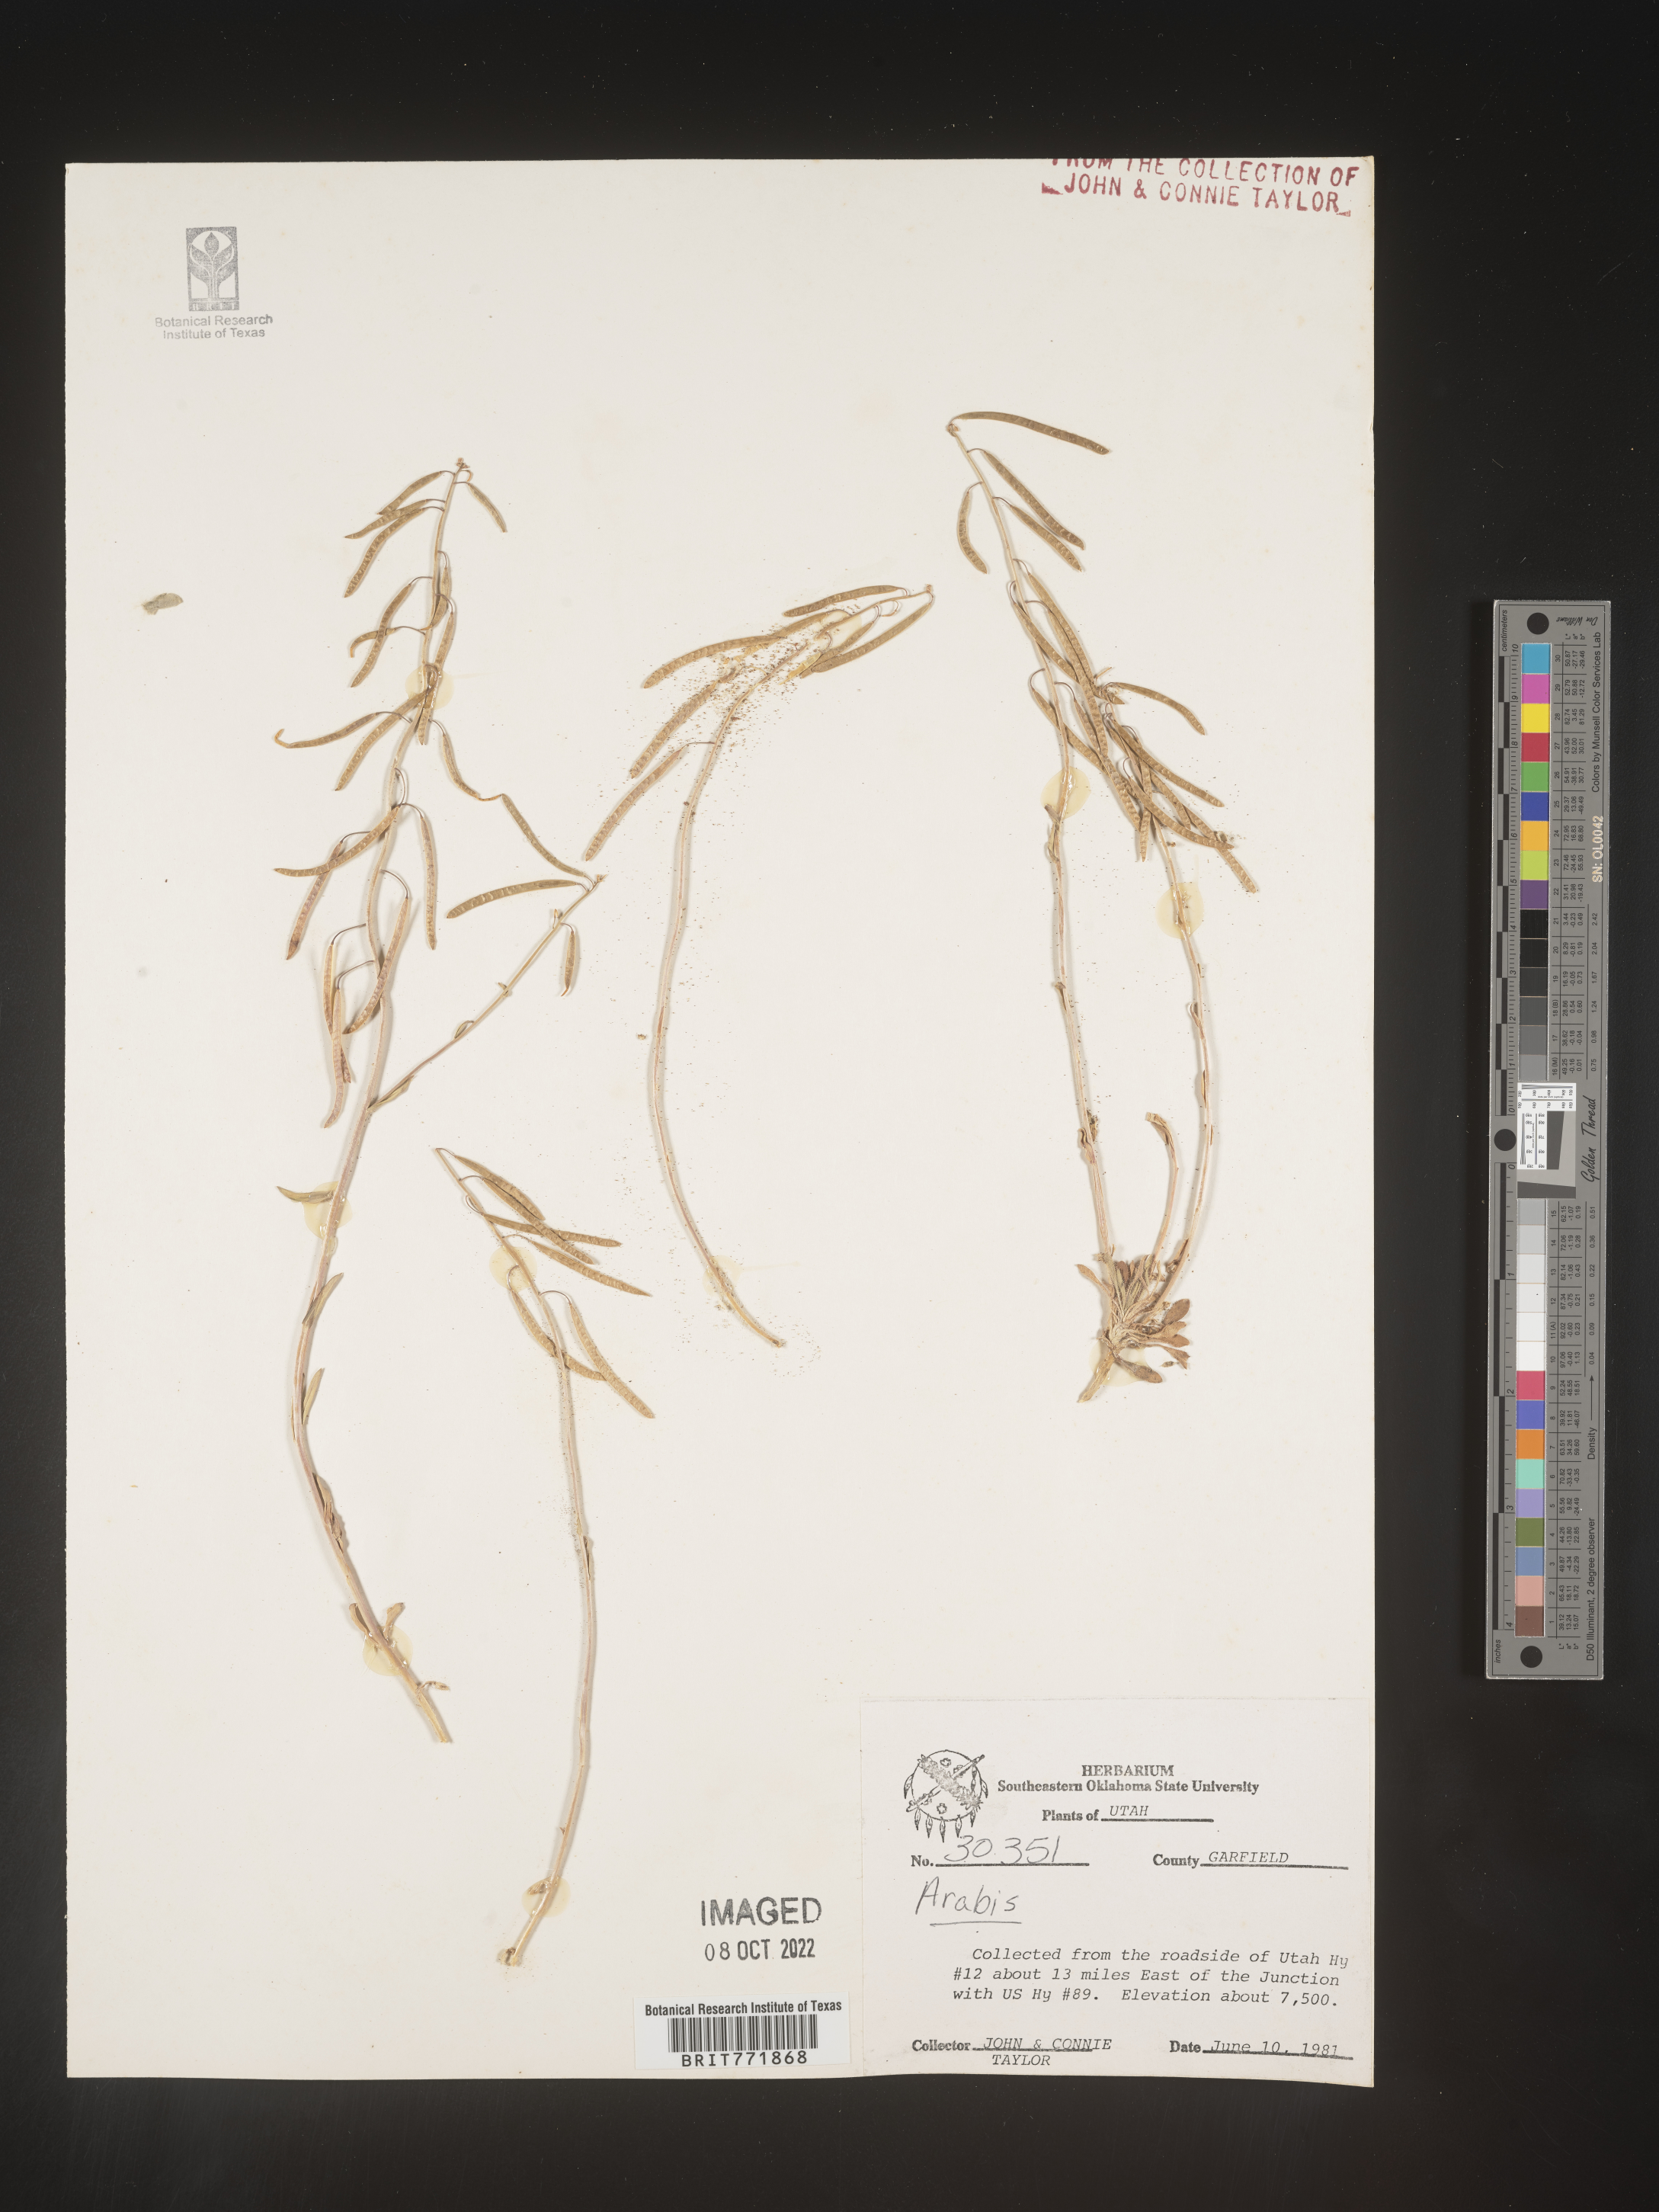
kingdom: Plantae
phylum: Tracheophyta
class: Magnoliopsida
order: Brassicales
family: Brassicaceae
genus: Arabis
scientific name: Arabis
